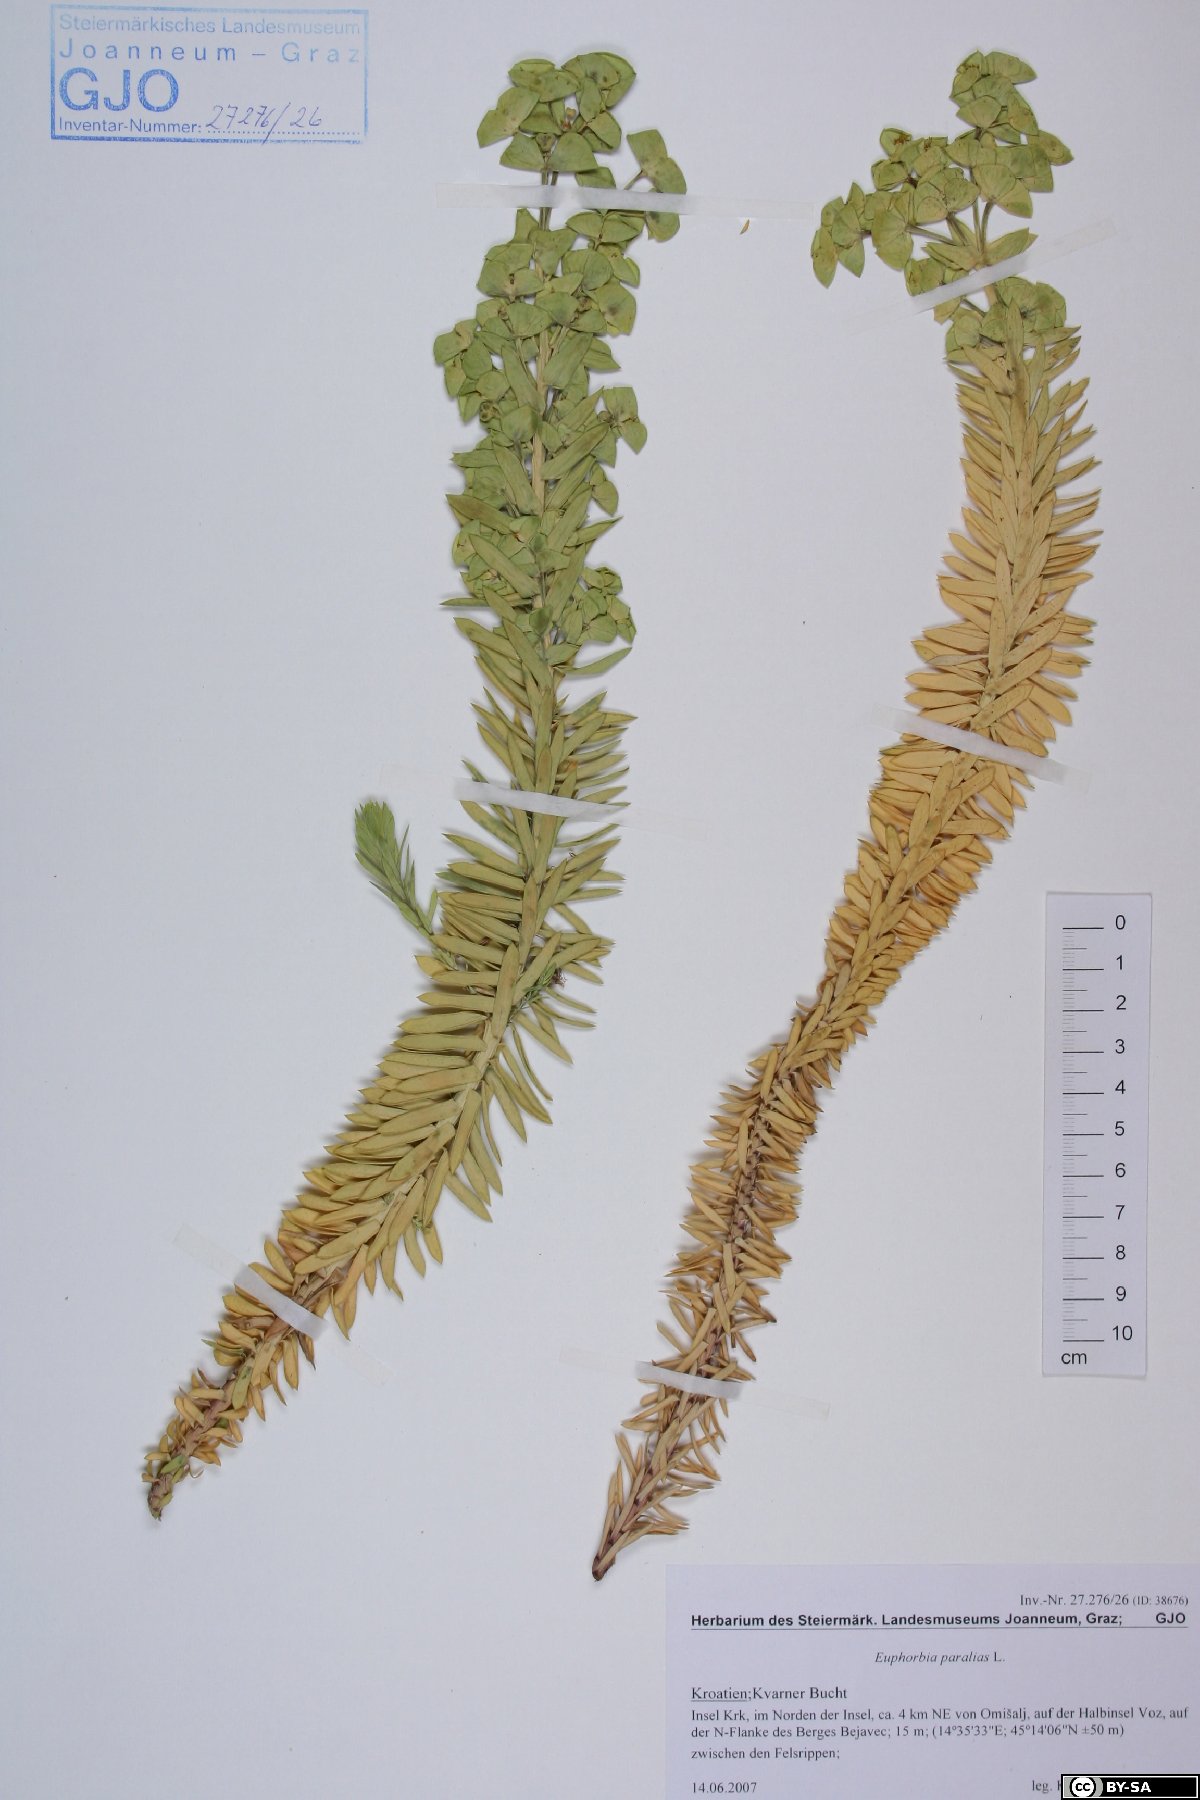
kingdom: Plantae
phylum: Tracheophyta
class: Magnoliopsida
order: Malpighiales
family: Euphorbiaceae
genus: Euphorbia
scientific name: Euphorbia paralias
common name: Sea spurge
